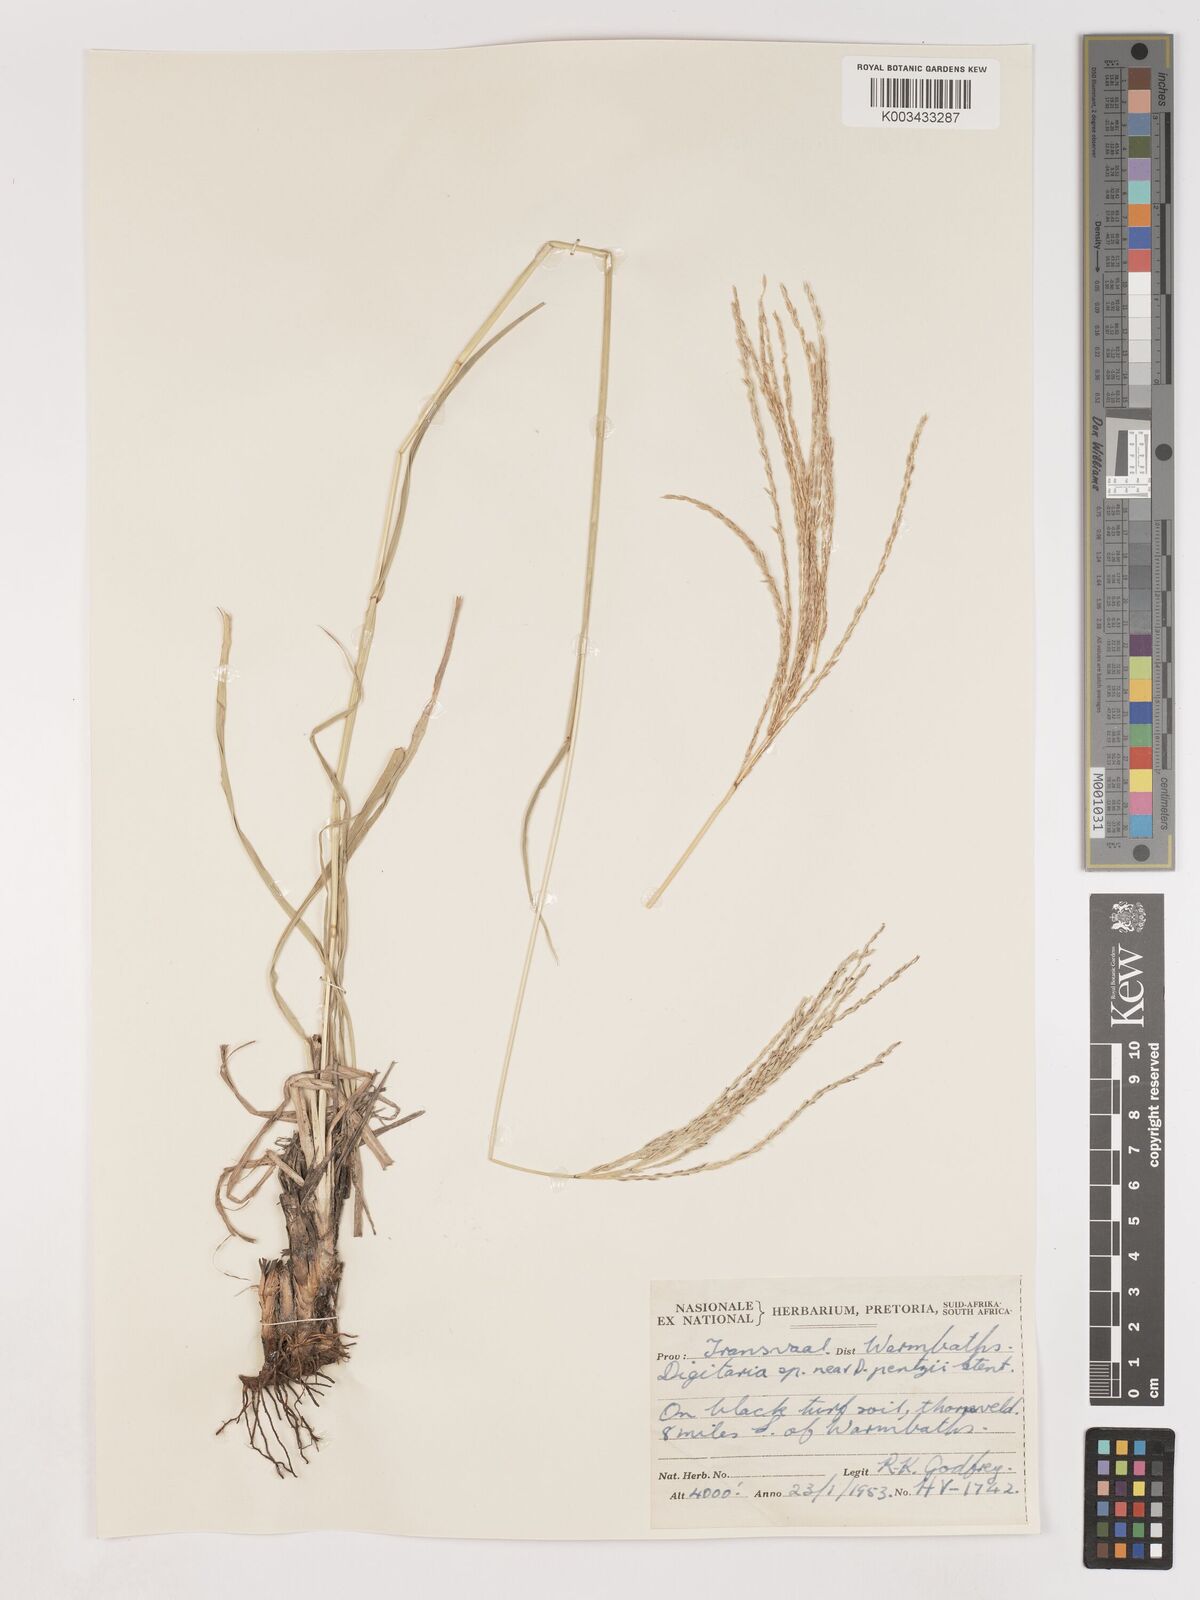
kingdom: Plantae
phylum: Tracheophyta
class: Liliopsida
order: Poales
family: Poaceae
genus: Digitaria
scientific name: Digitaria eriantha
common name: Digitgrass
